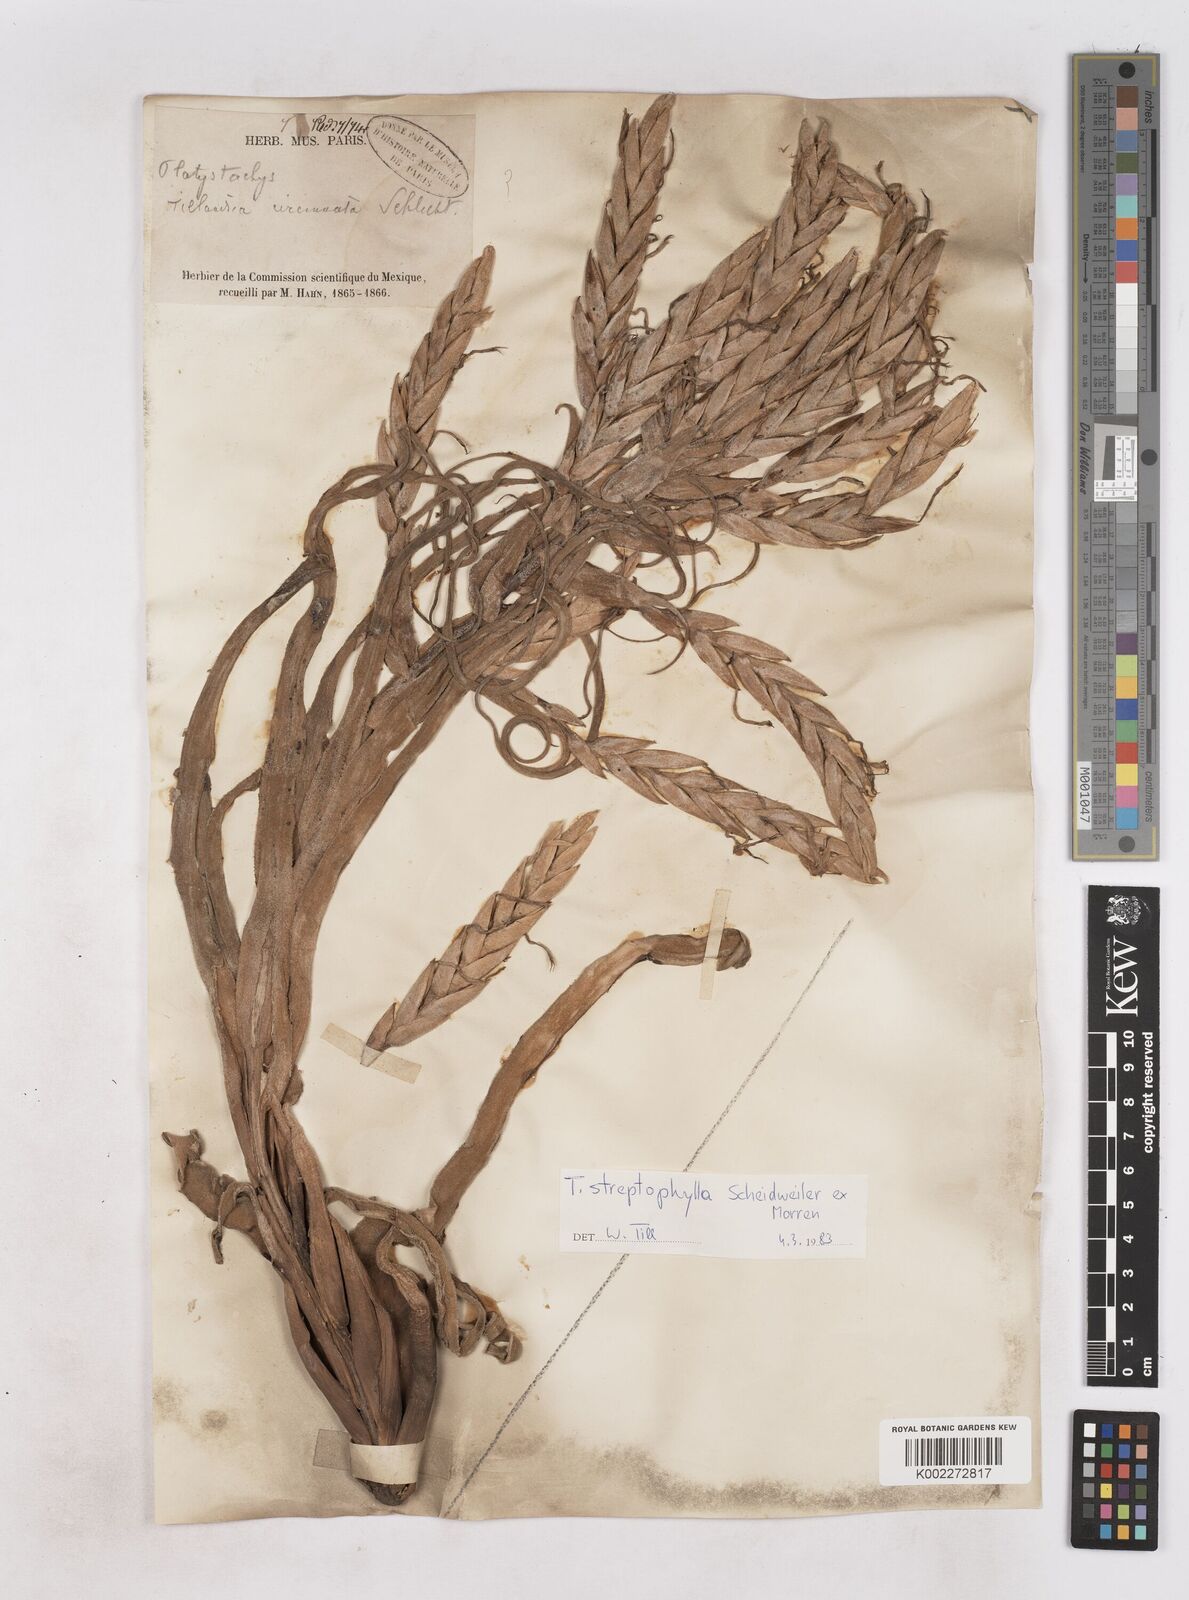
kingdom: Plantae
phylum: Tracheophyta
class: Liliopsida
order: Poales
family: Bromeliaceae
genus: Tillandsia
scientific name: Tillandsia streptophylla
